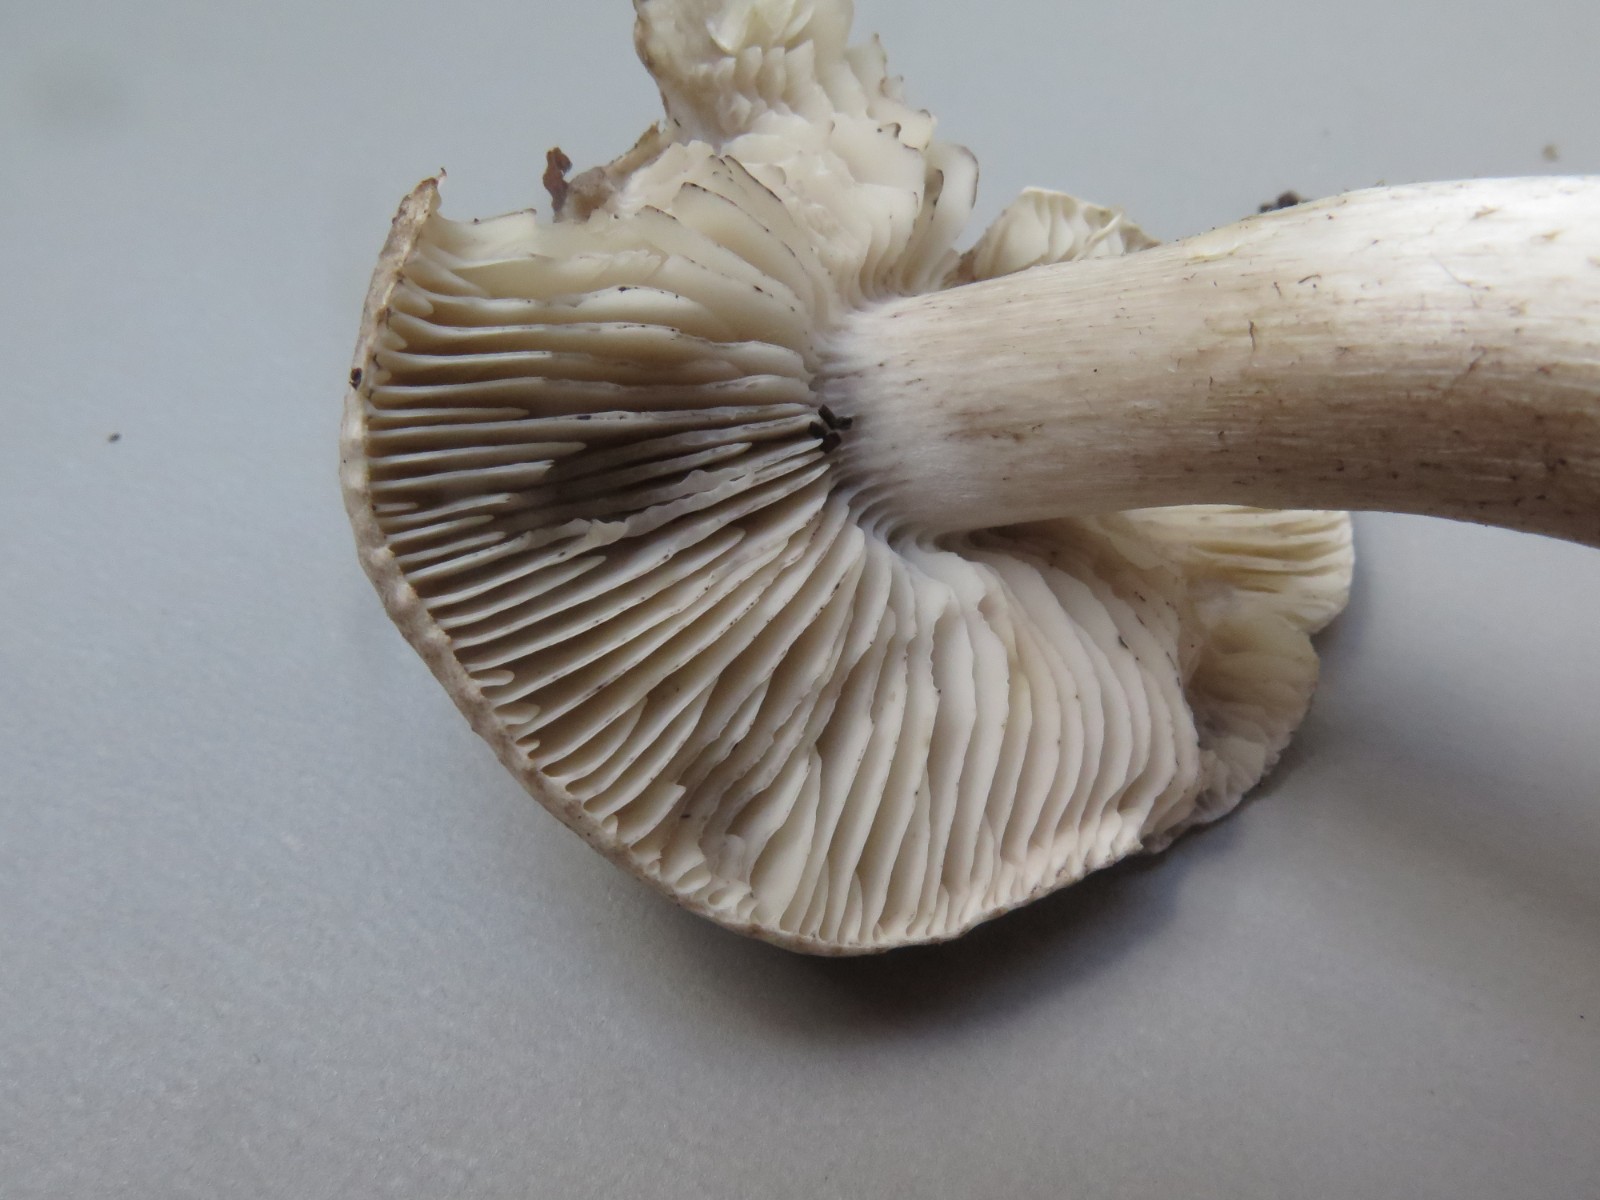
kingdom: Fungi
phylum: Basidiomycota
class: Agaricomycetes
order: Agaricales
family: Tricholomataceae
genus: Tricholoma
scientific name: Tricholoma scalpturatum
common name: gulplettet ridderhat
